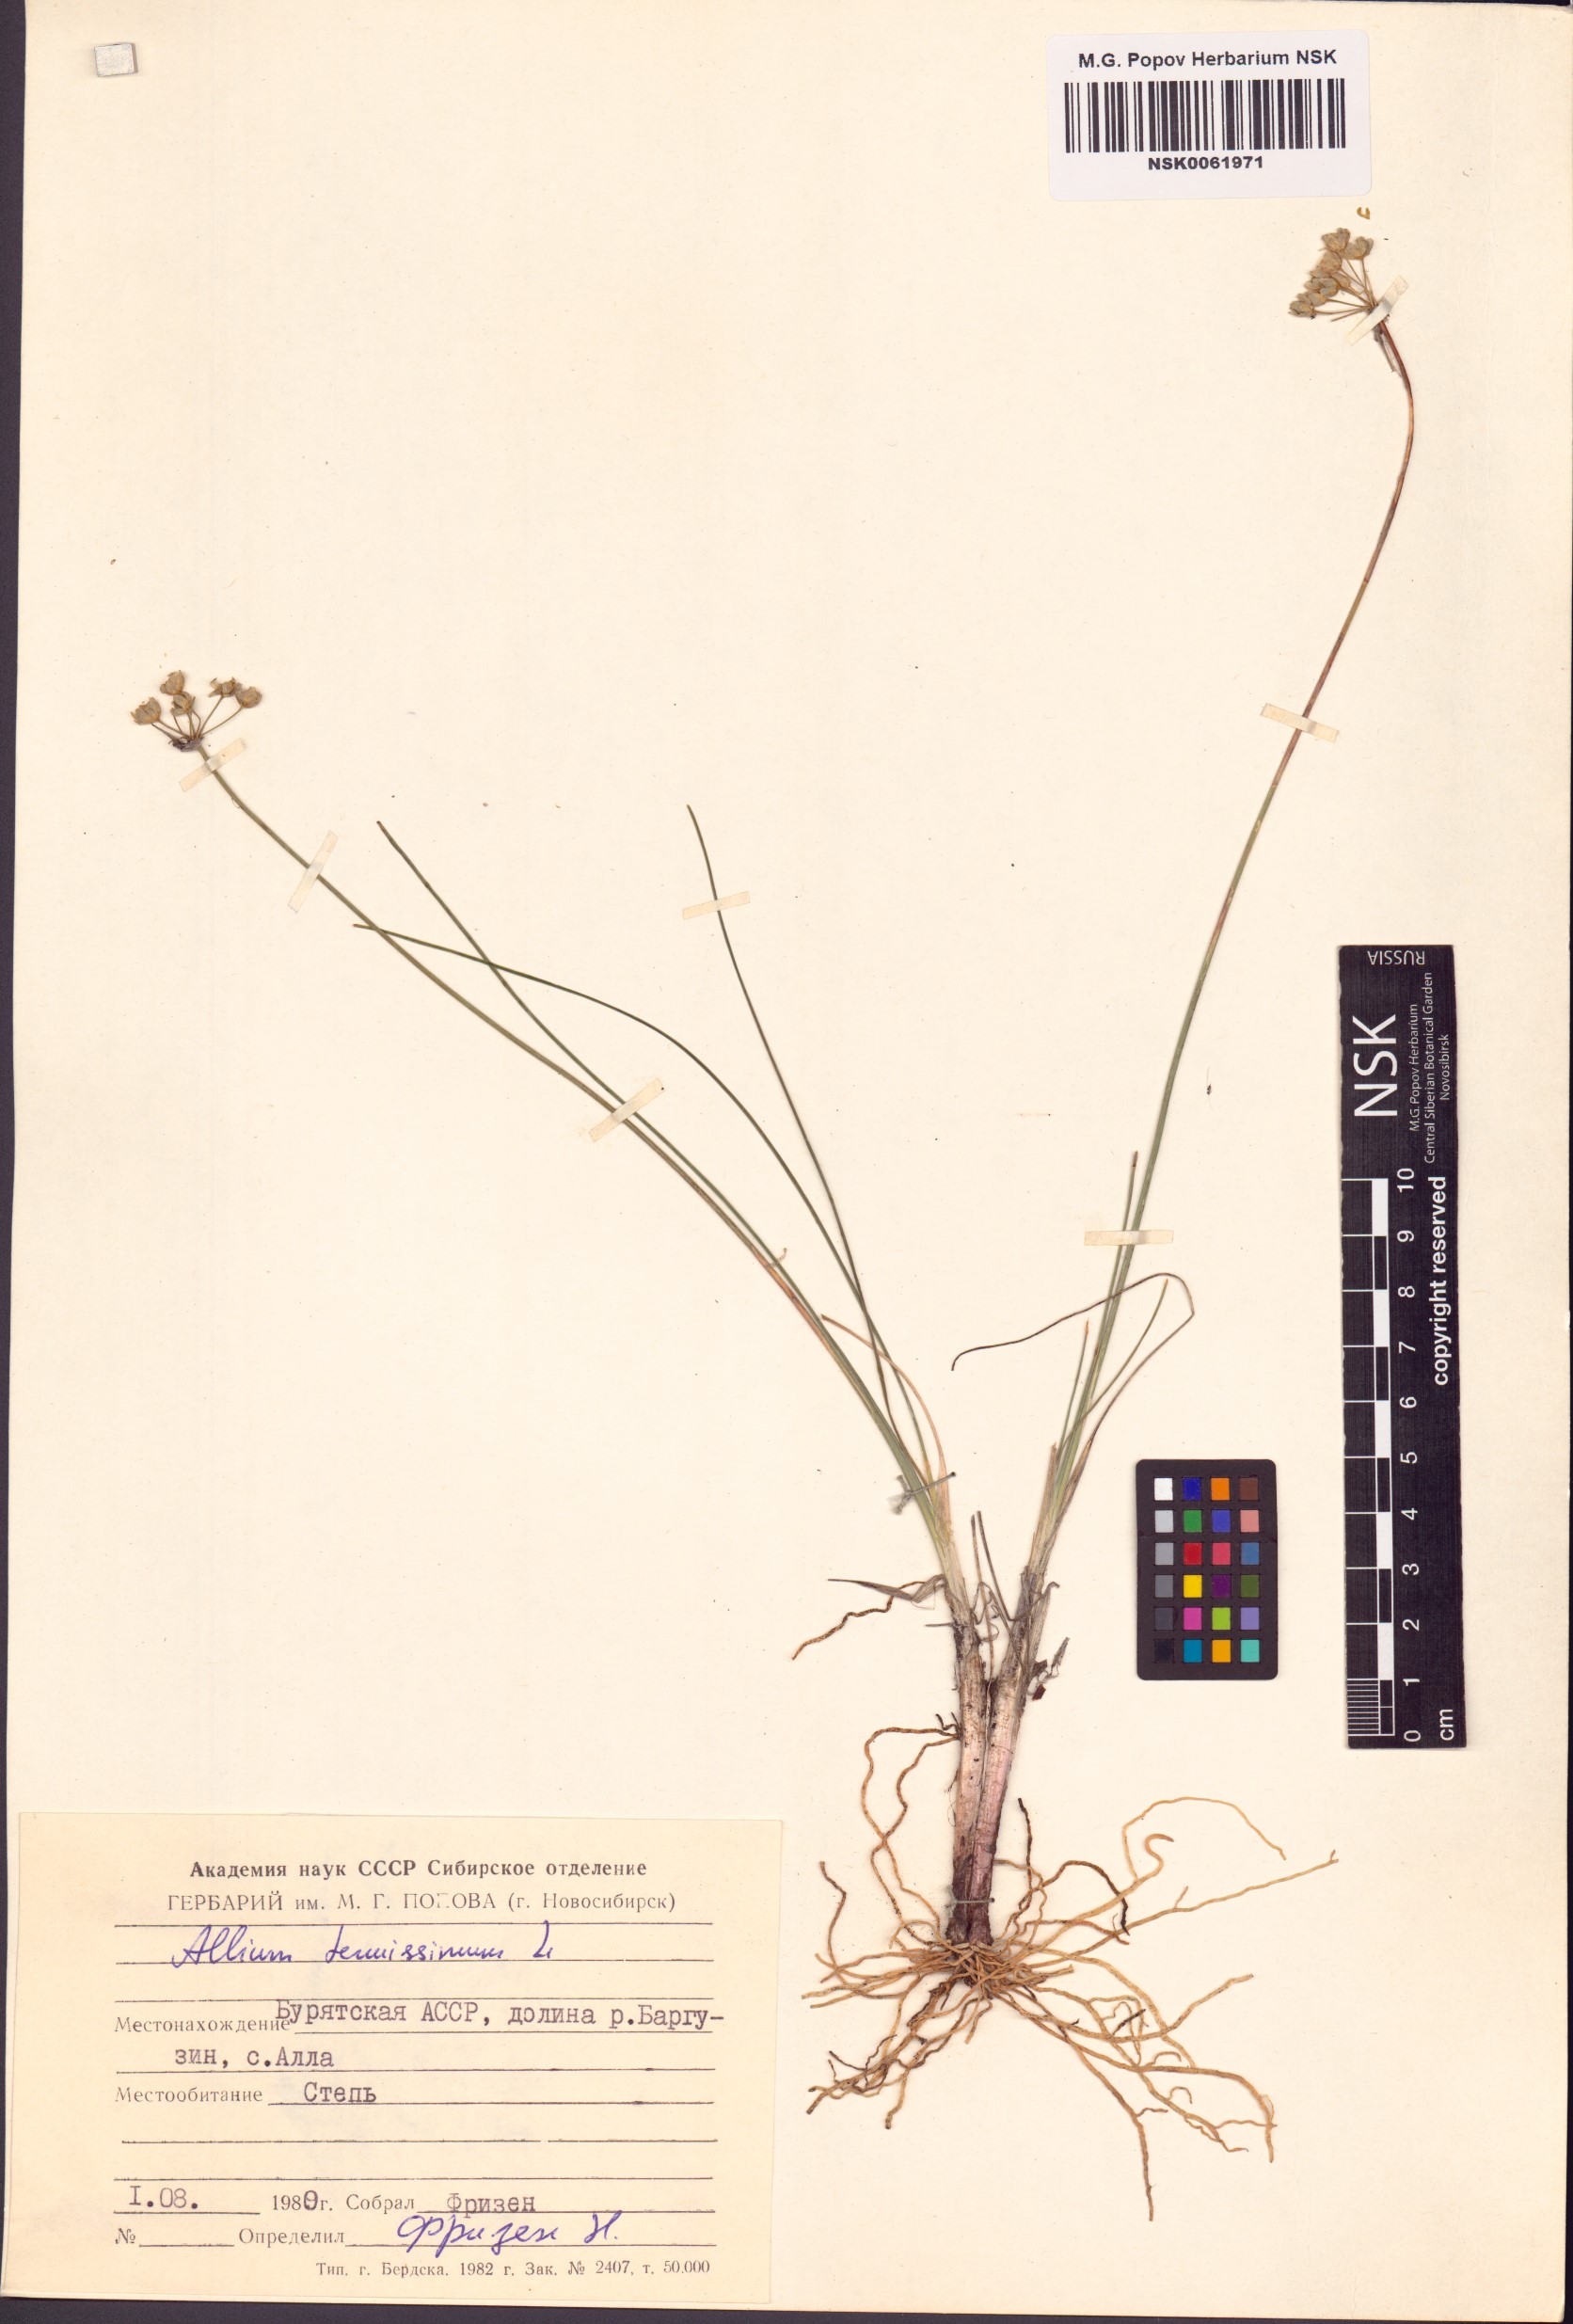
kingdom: Plantae
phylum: Tracheophyta
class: Liliopsida
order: Asparagales
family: Amaryllidaceae
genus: Allium
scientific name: Allium tenuissimum
